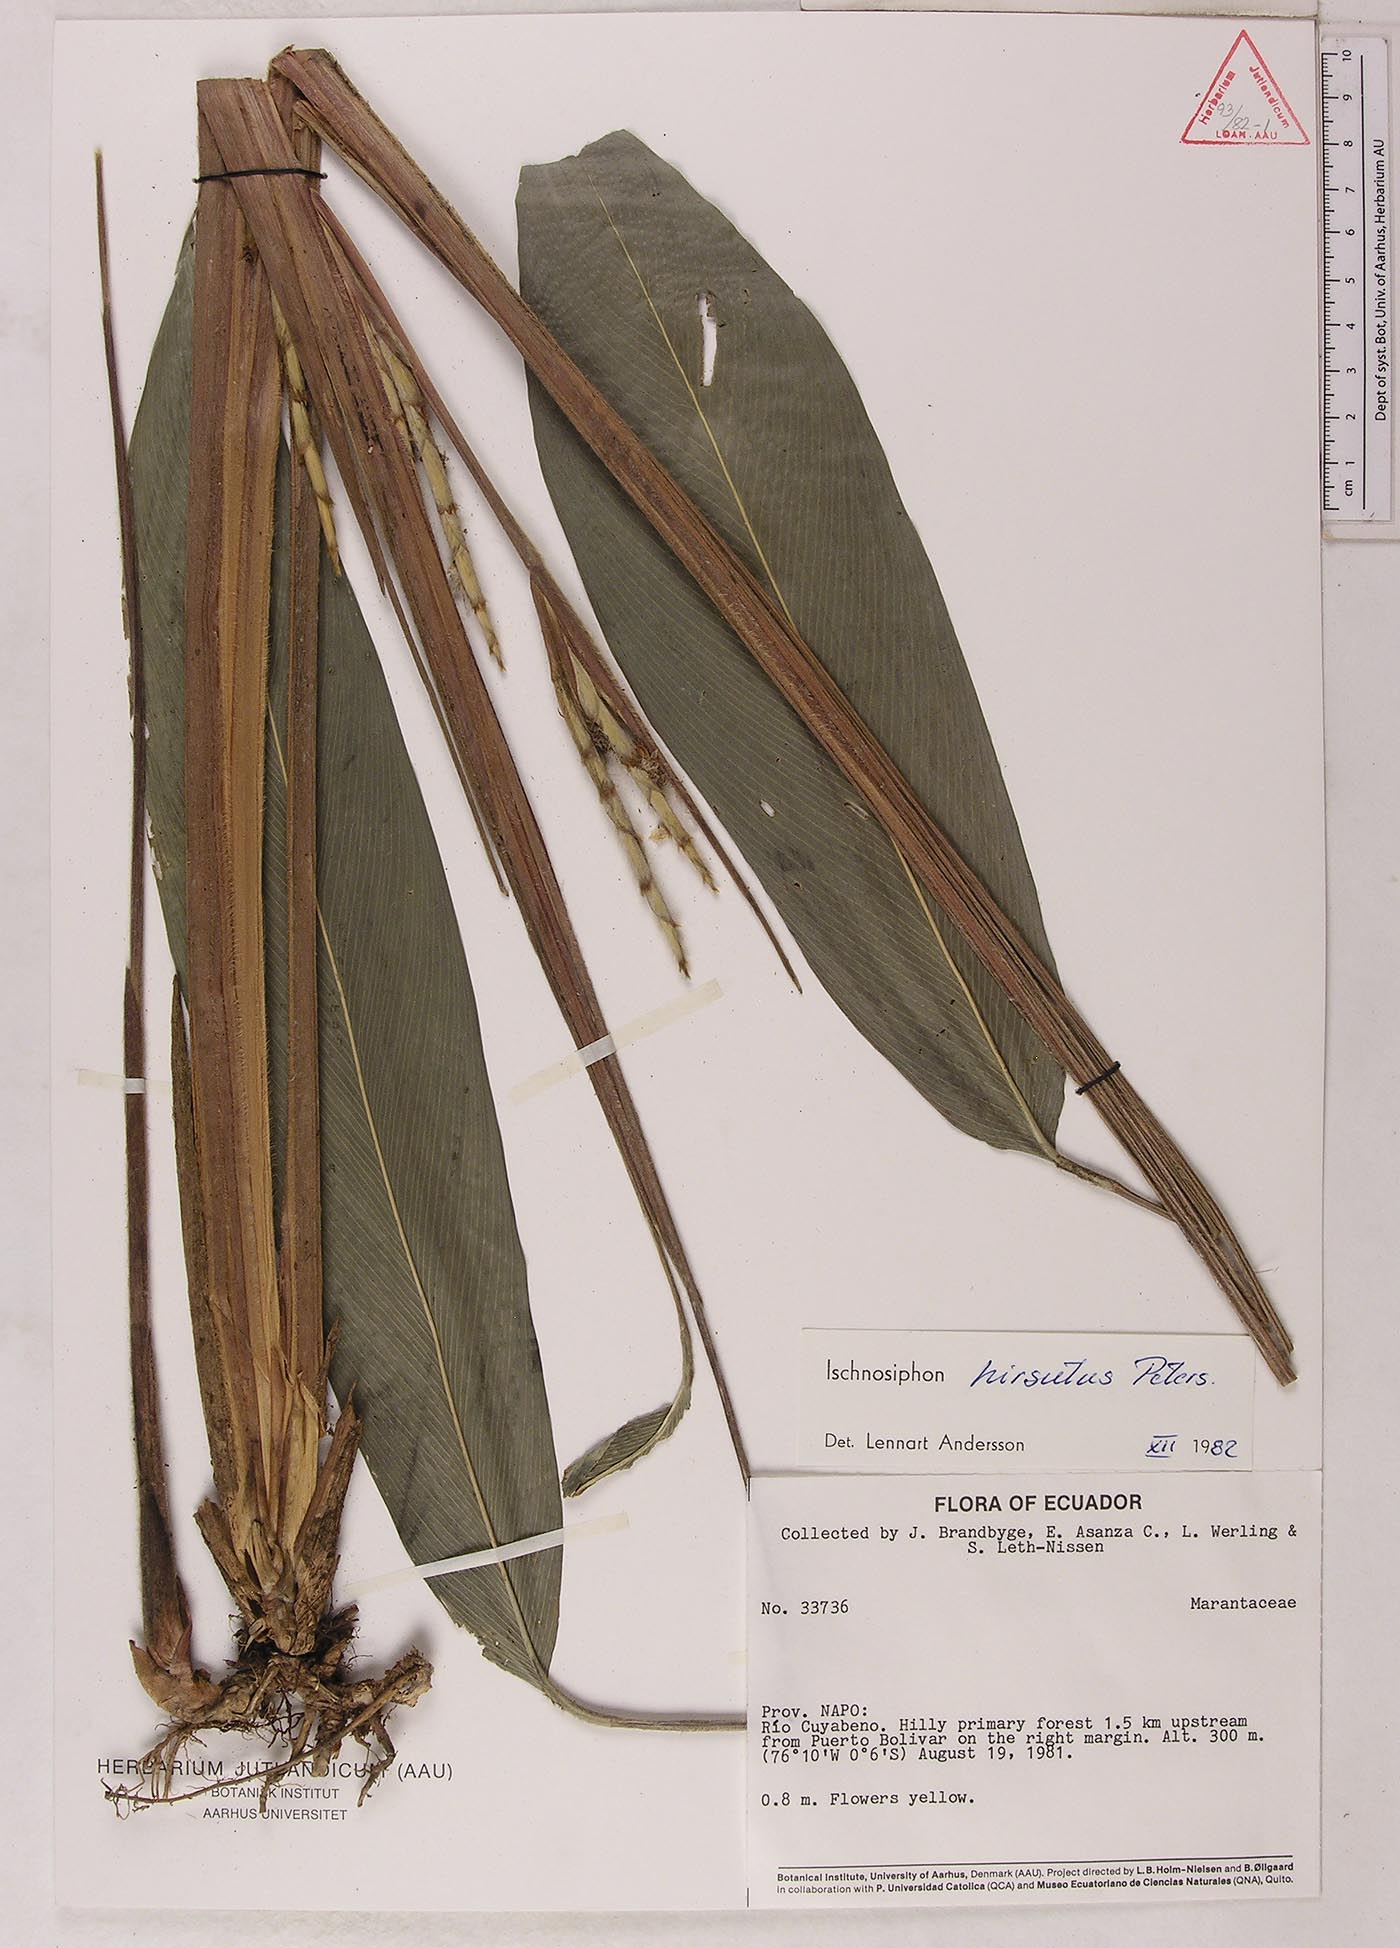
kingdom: Plantae
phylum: Tracheophyta
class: Liliopsida
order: Zingiberales
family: Marantaceae
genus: Ischnosiphon
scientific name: Ischnosiphon hirsutus
